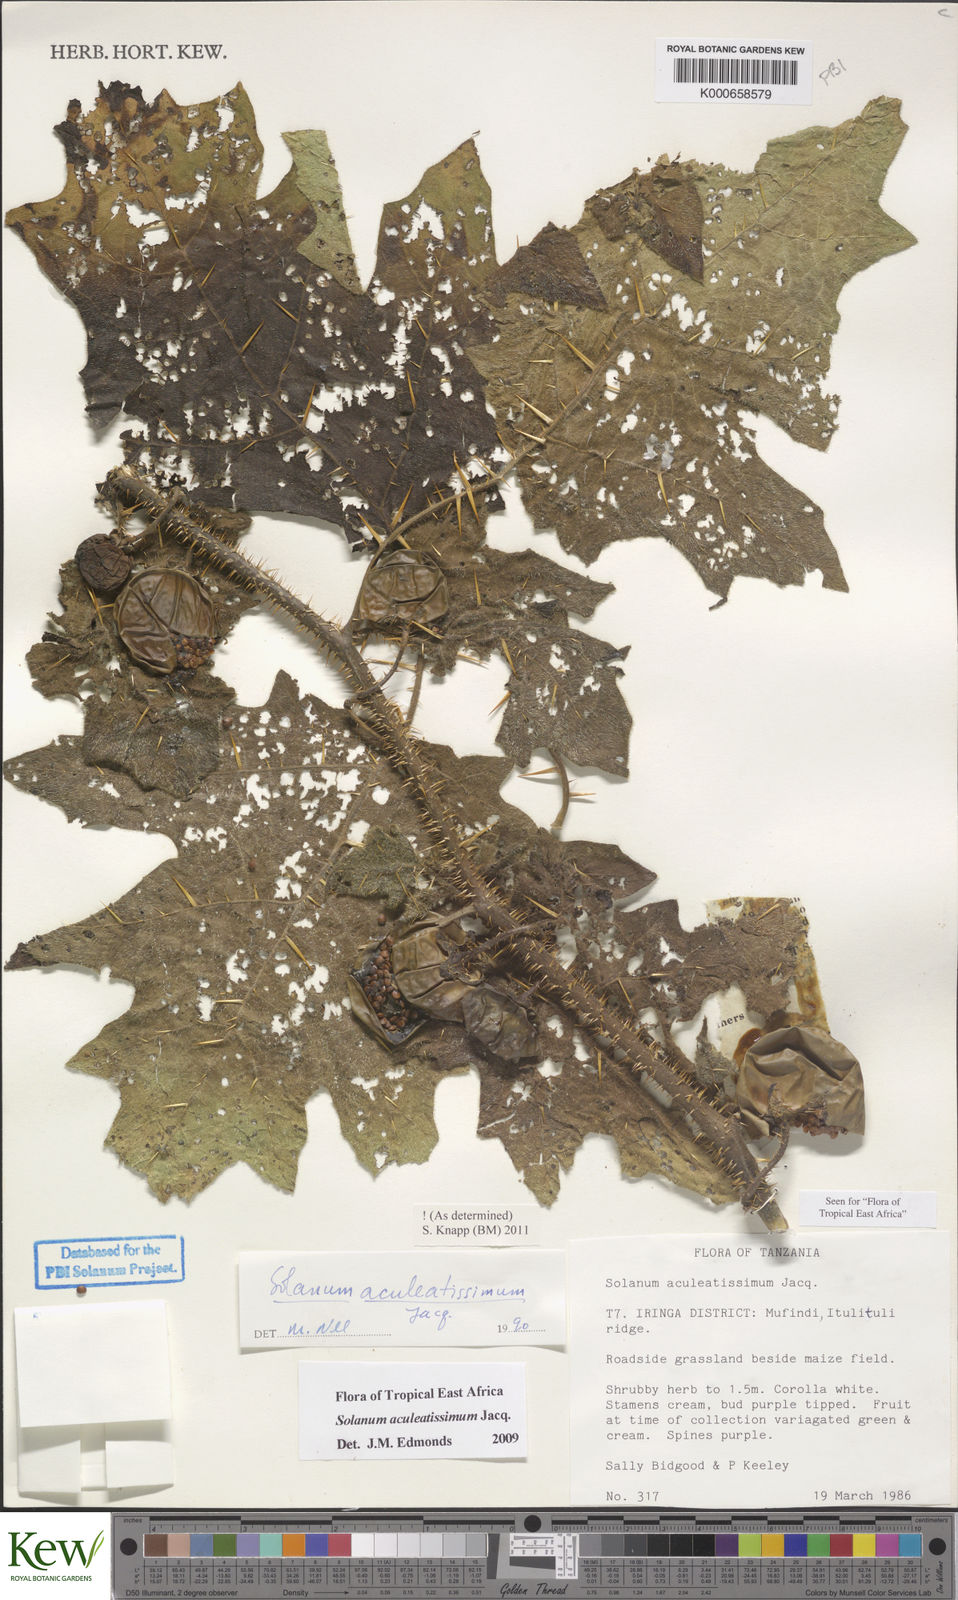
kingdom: Plantae
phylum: Tracheophyta
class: Magnoliopsida
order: Solanales
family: Solanaceae
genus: Solanum
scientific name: Solanum aculeatissimum
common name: Dutch eggplant
